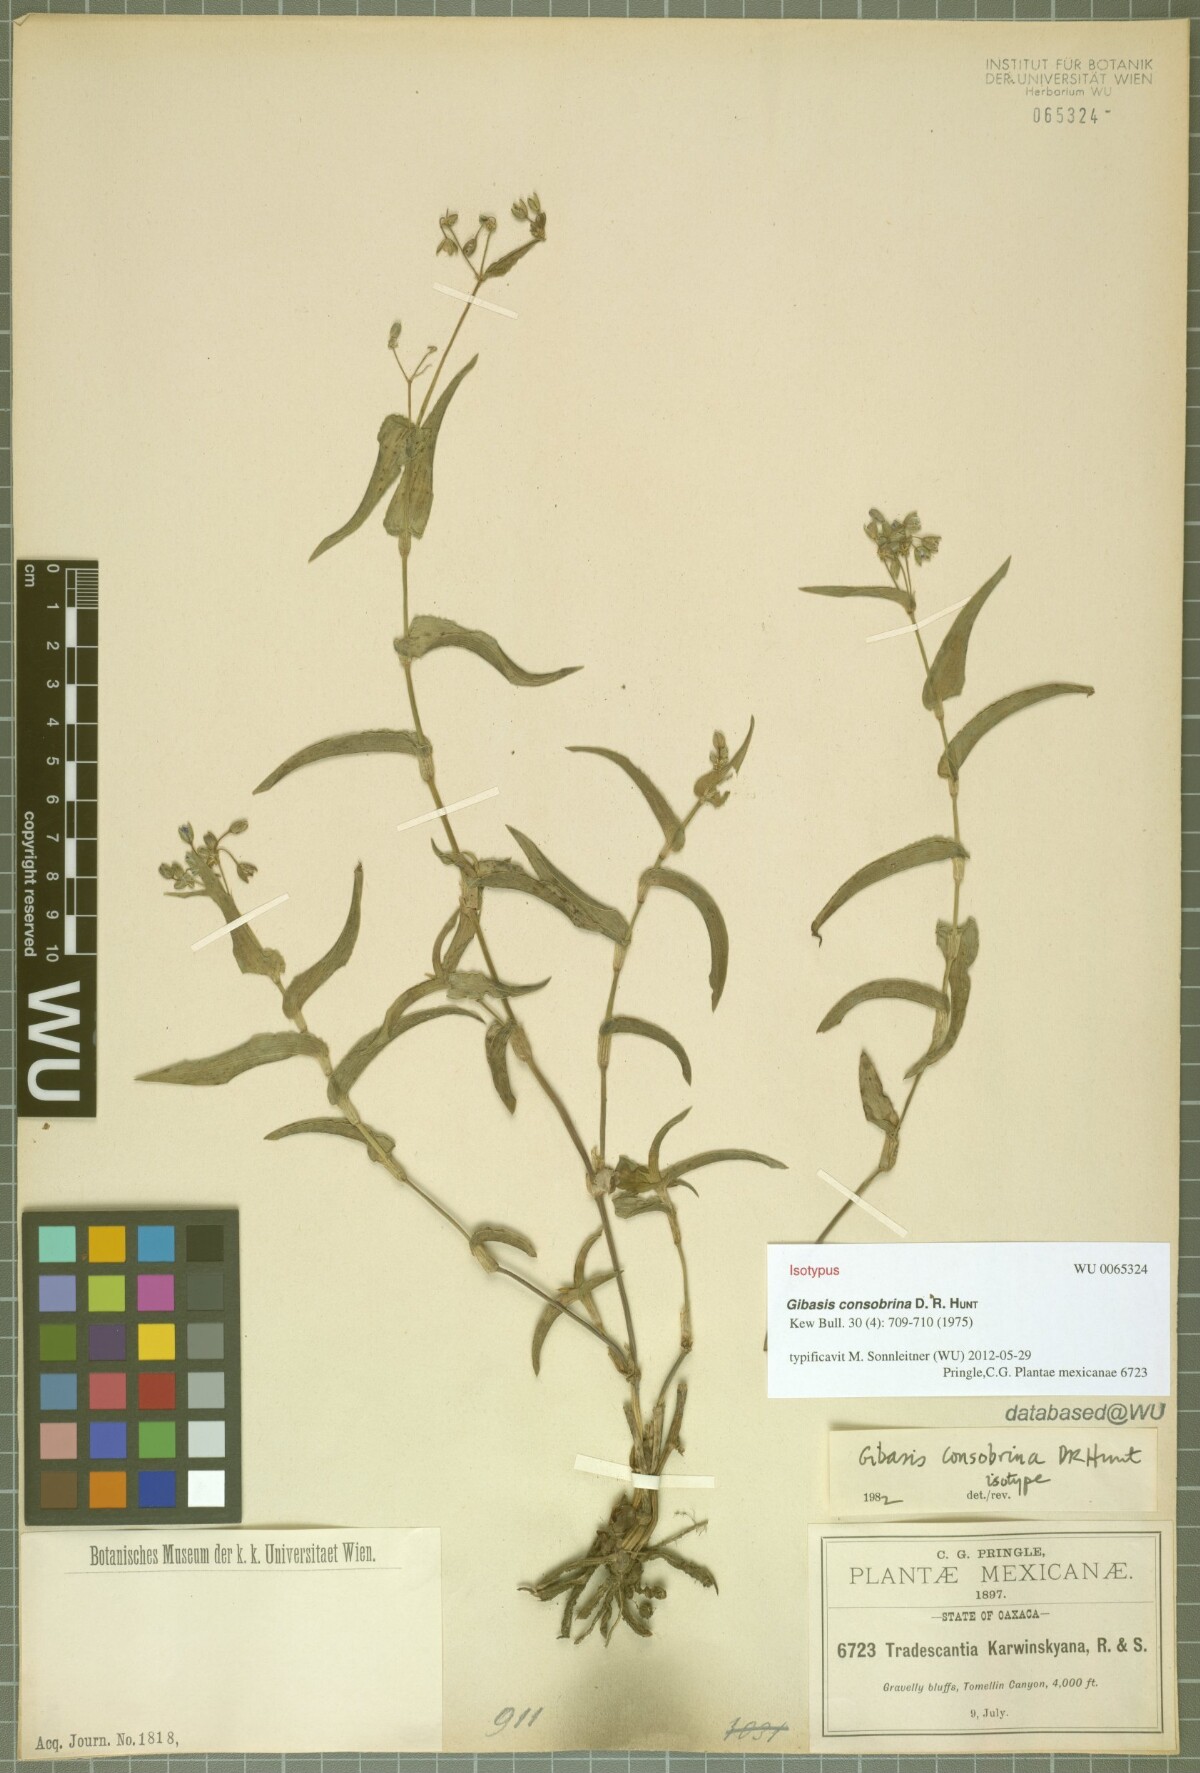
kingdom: Plantae
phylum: Tracheophyta
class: Liliopsida
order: Commelinales
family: Commelinaceae
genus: Gibasis
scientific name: Gibasis consobrina
